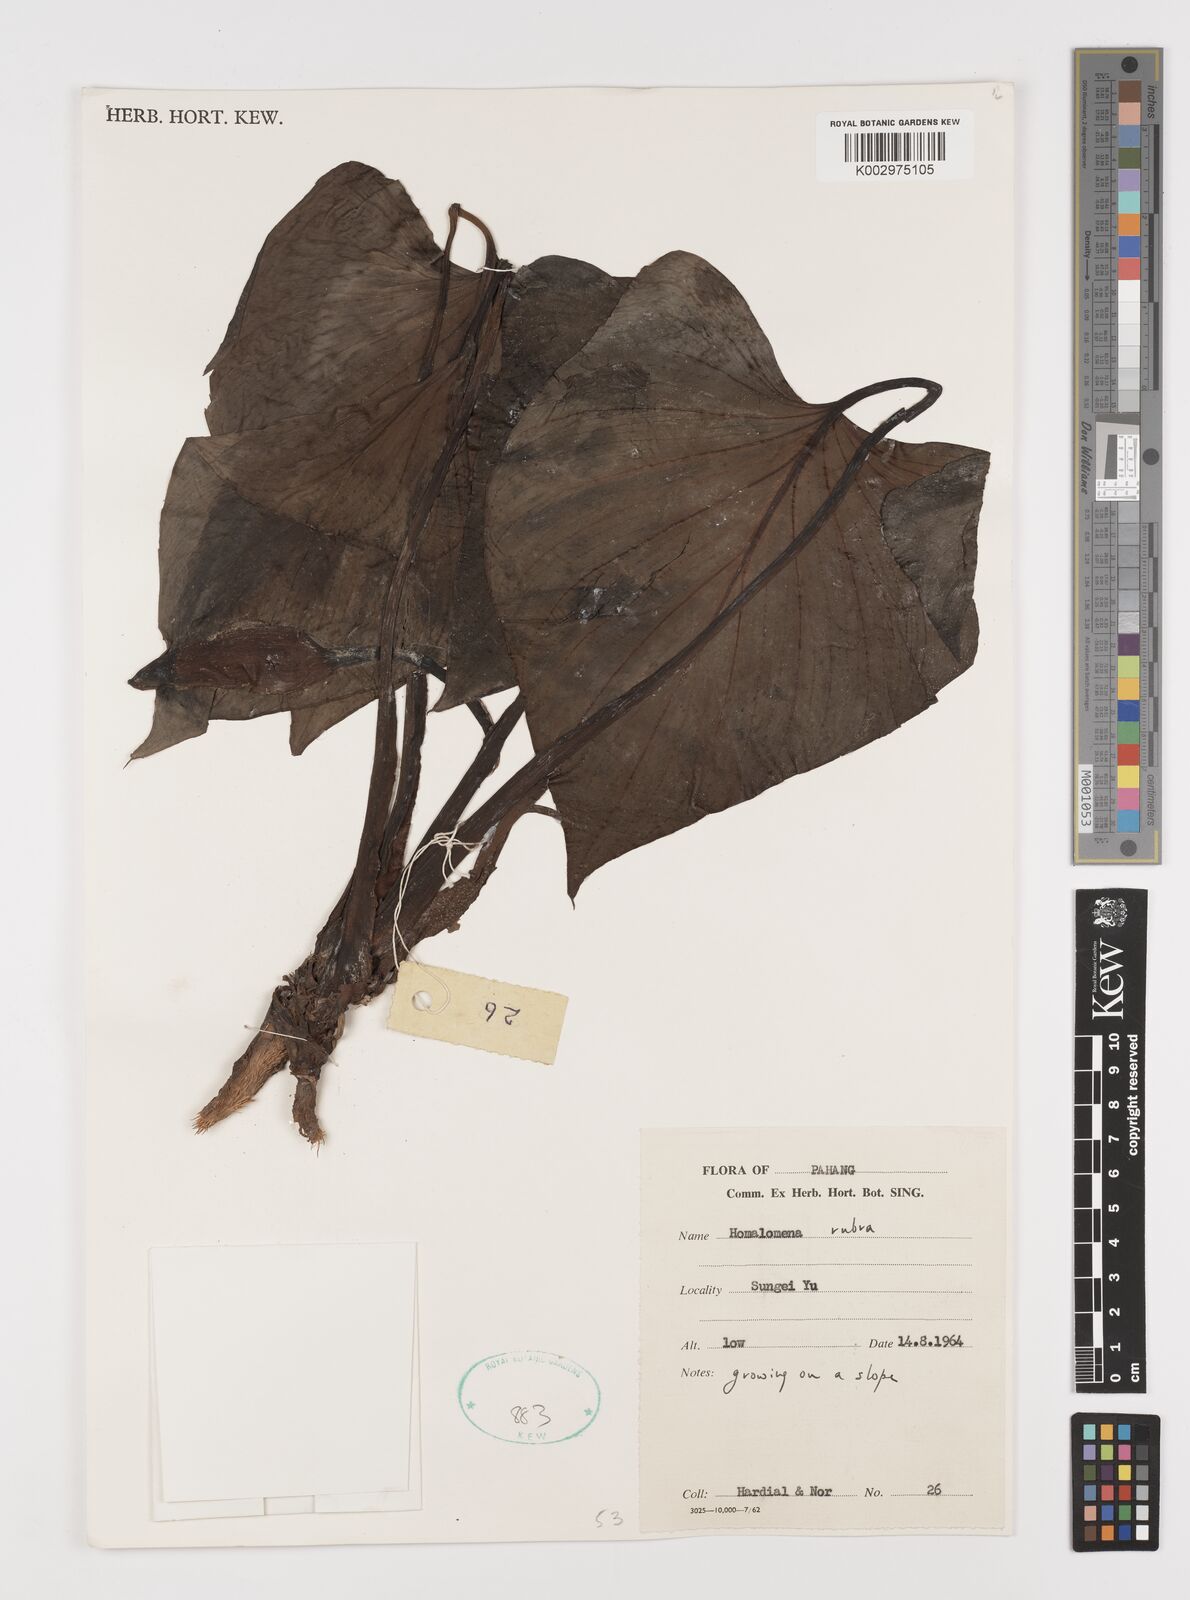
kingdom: Plantae
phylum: Tracheophyta
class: Liliopsida
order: Alismatales
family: Araceae
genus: Homalomena
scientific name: Homalomena pendula
